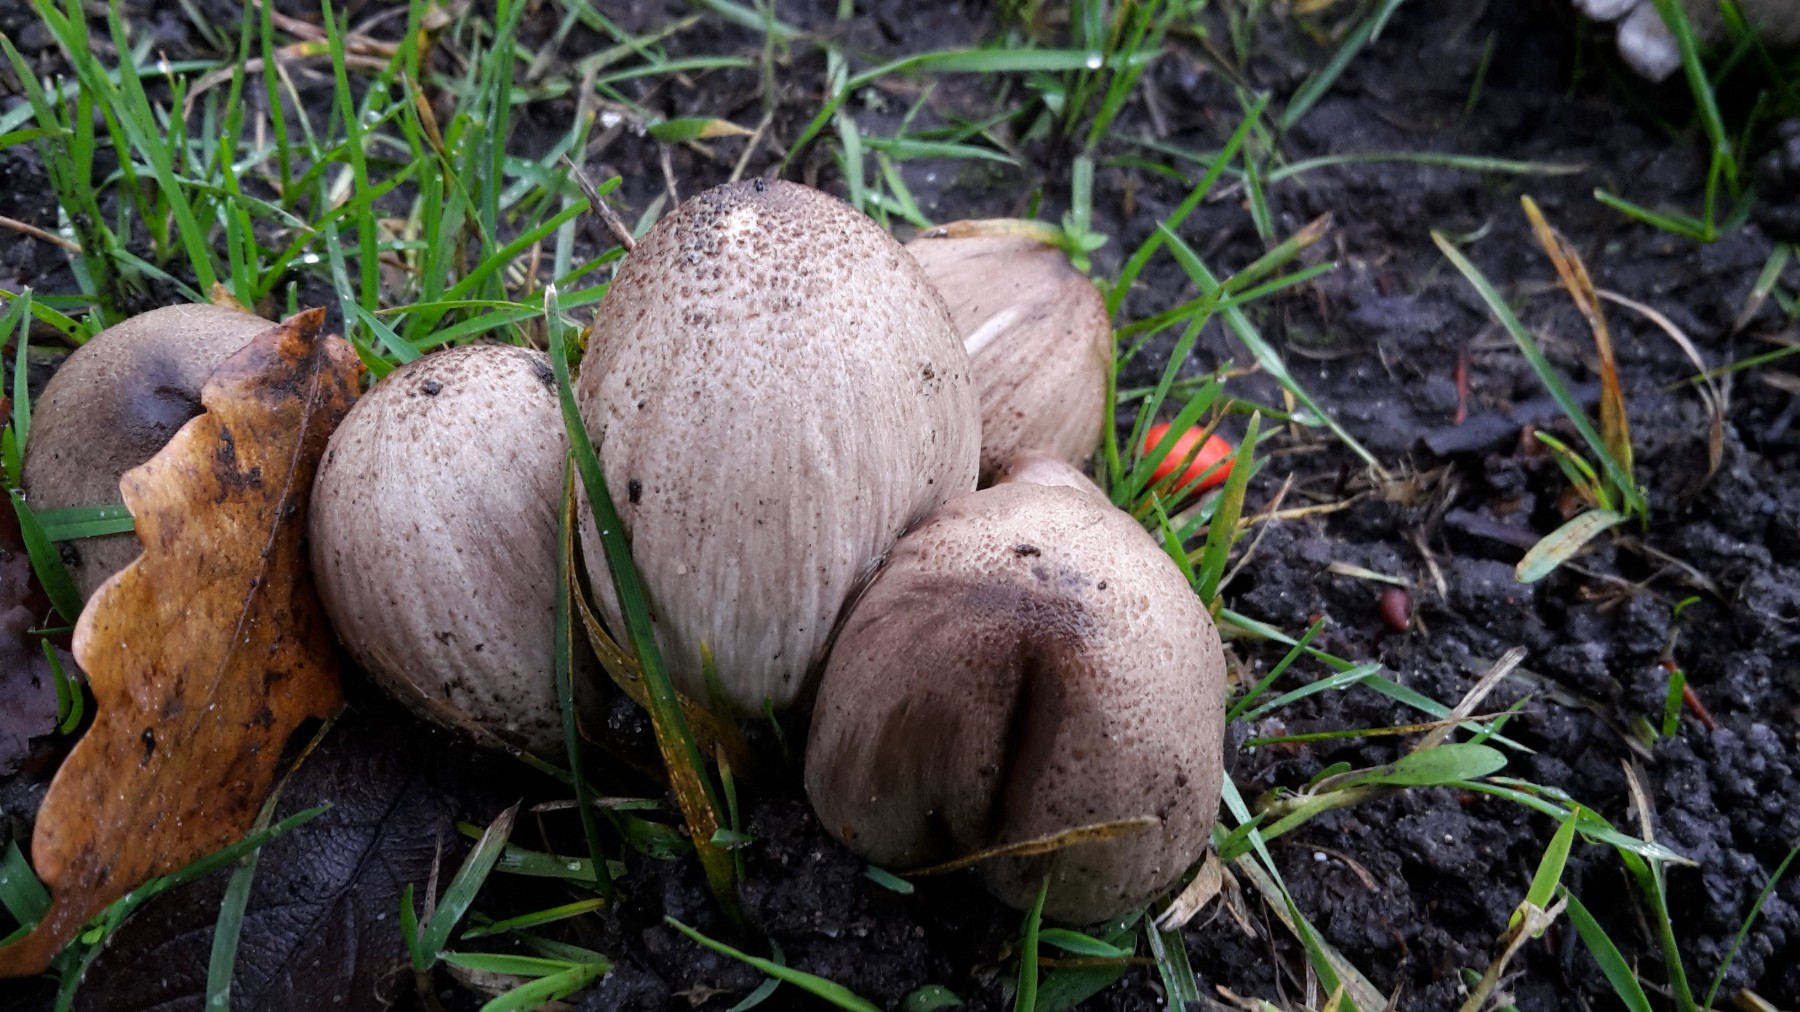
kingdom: Fungi
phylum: Basidiomycota
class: Agaricomycetes
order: Agaricales
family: Psathyrellaceae
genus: Coprinopsis
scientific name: Coprinopsis atramentaria
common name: almindelig blækhat
